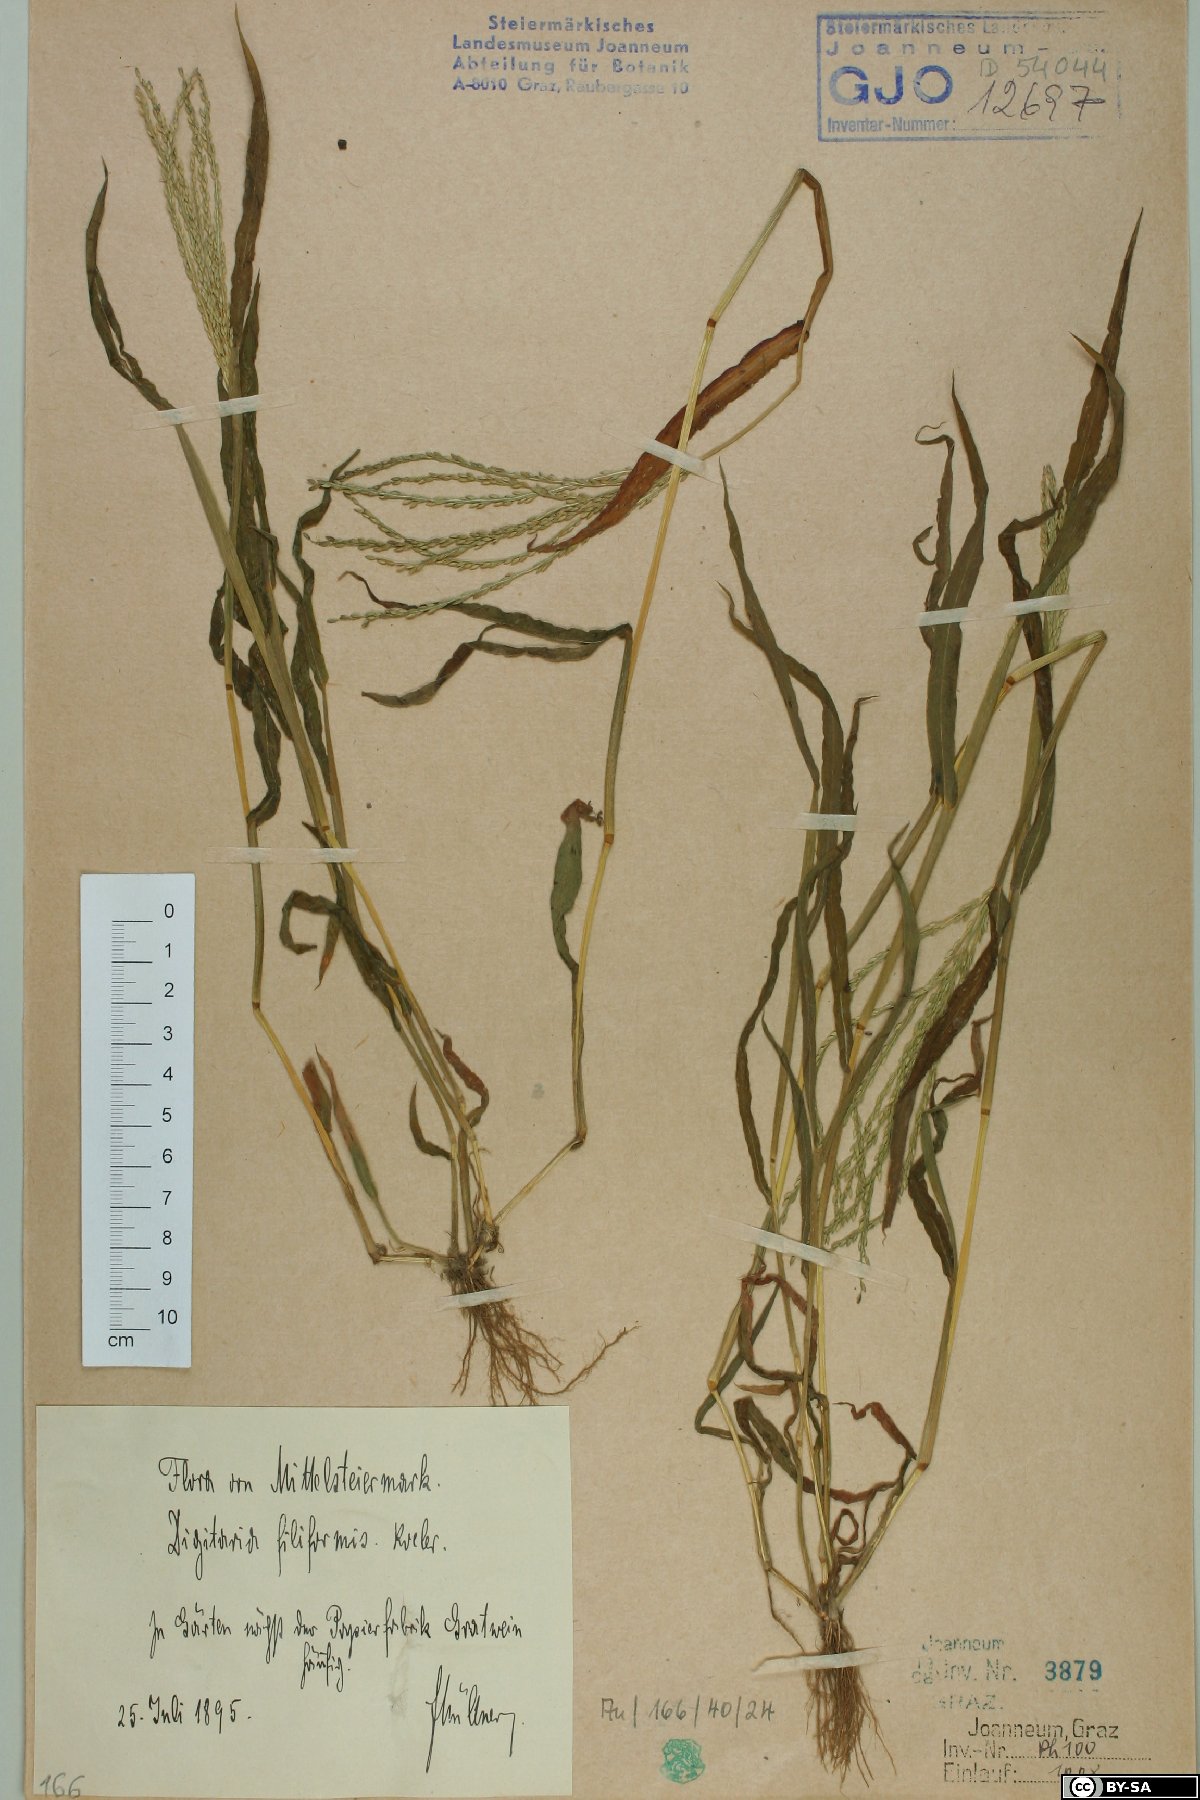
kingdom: Plantae
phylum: Tracheophyta
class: Liliopsida
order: Poales
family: Poaceae
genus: Digitaria
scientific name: Digitaria filiformis
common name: Slender crabgrass
